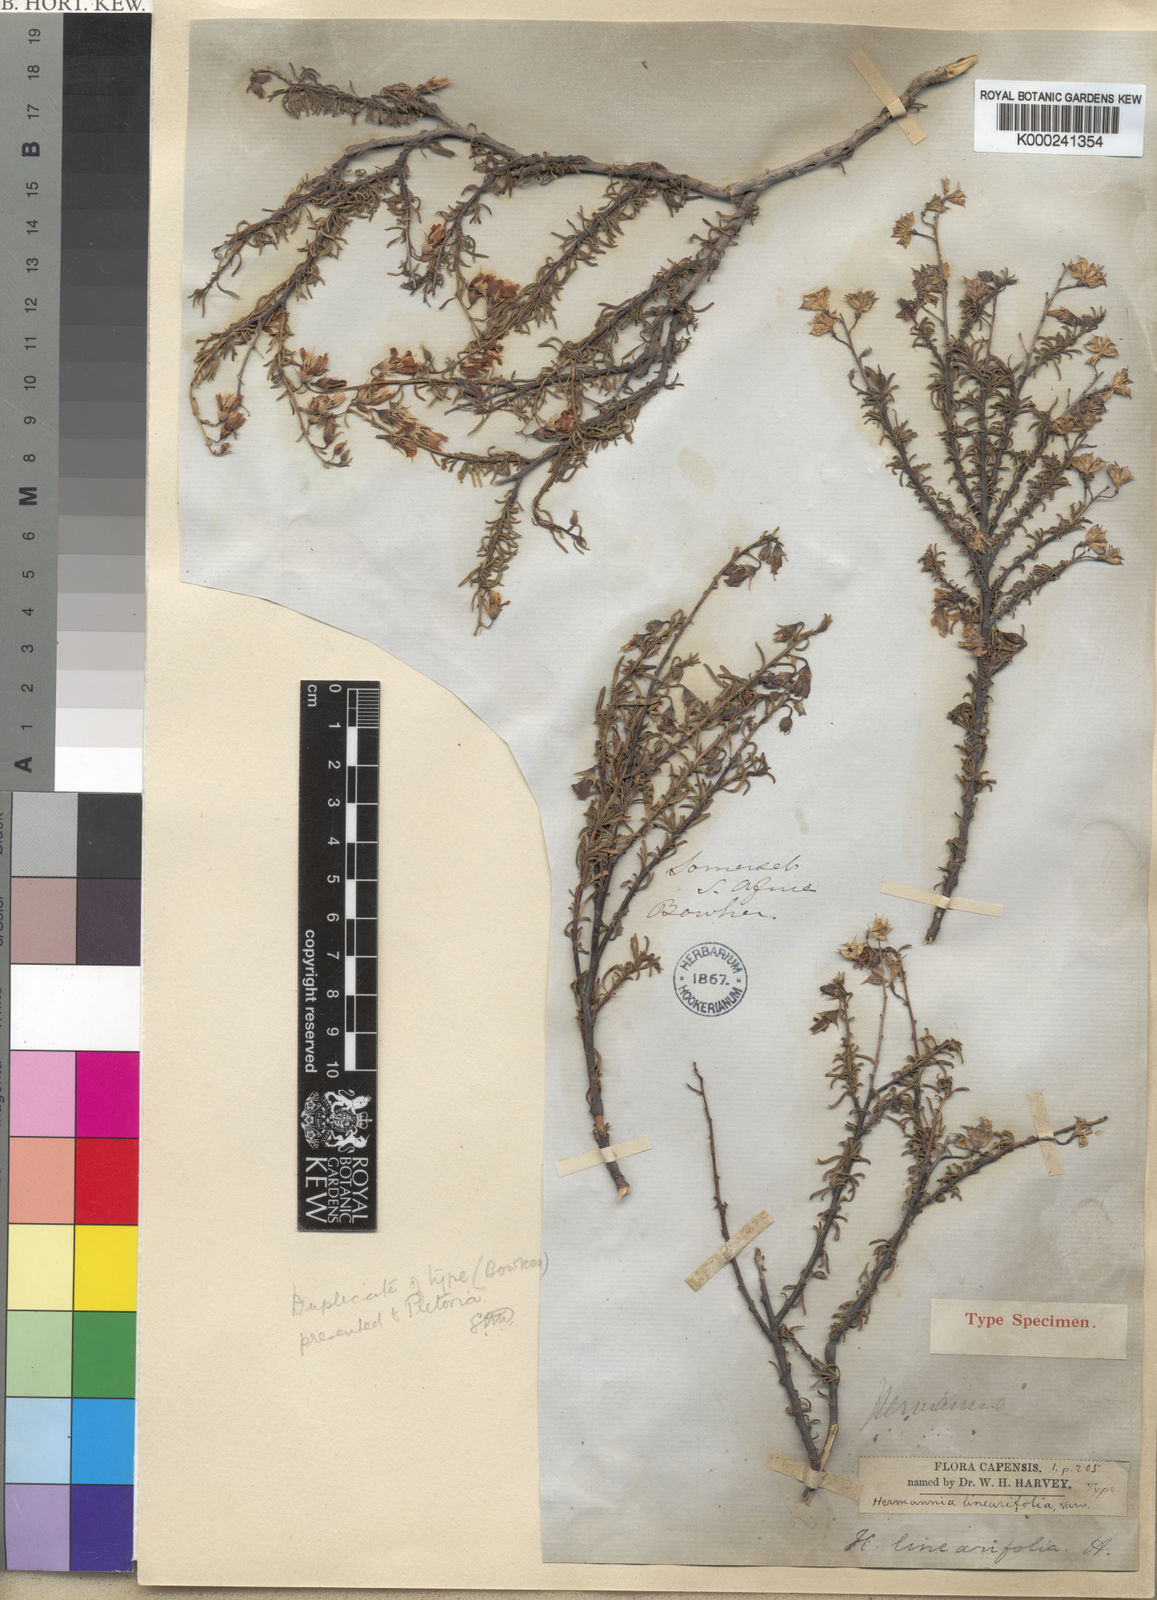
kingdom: Plantae
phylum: Tracheophyta
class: Magnoliopsida
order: Malvales
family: Malvaceae
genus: Hermannia
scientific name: Hermannia linearifolia
